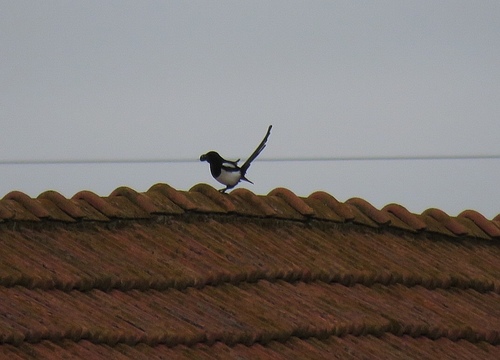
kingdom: Animalia
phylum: Chordata
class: Aves
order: Passeriformes
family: Corvidae
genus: Pica
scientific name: Pica pica
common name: Eurasian magpie
